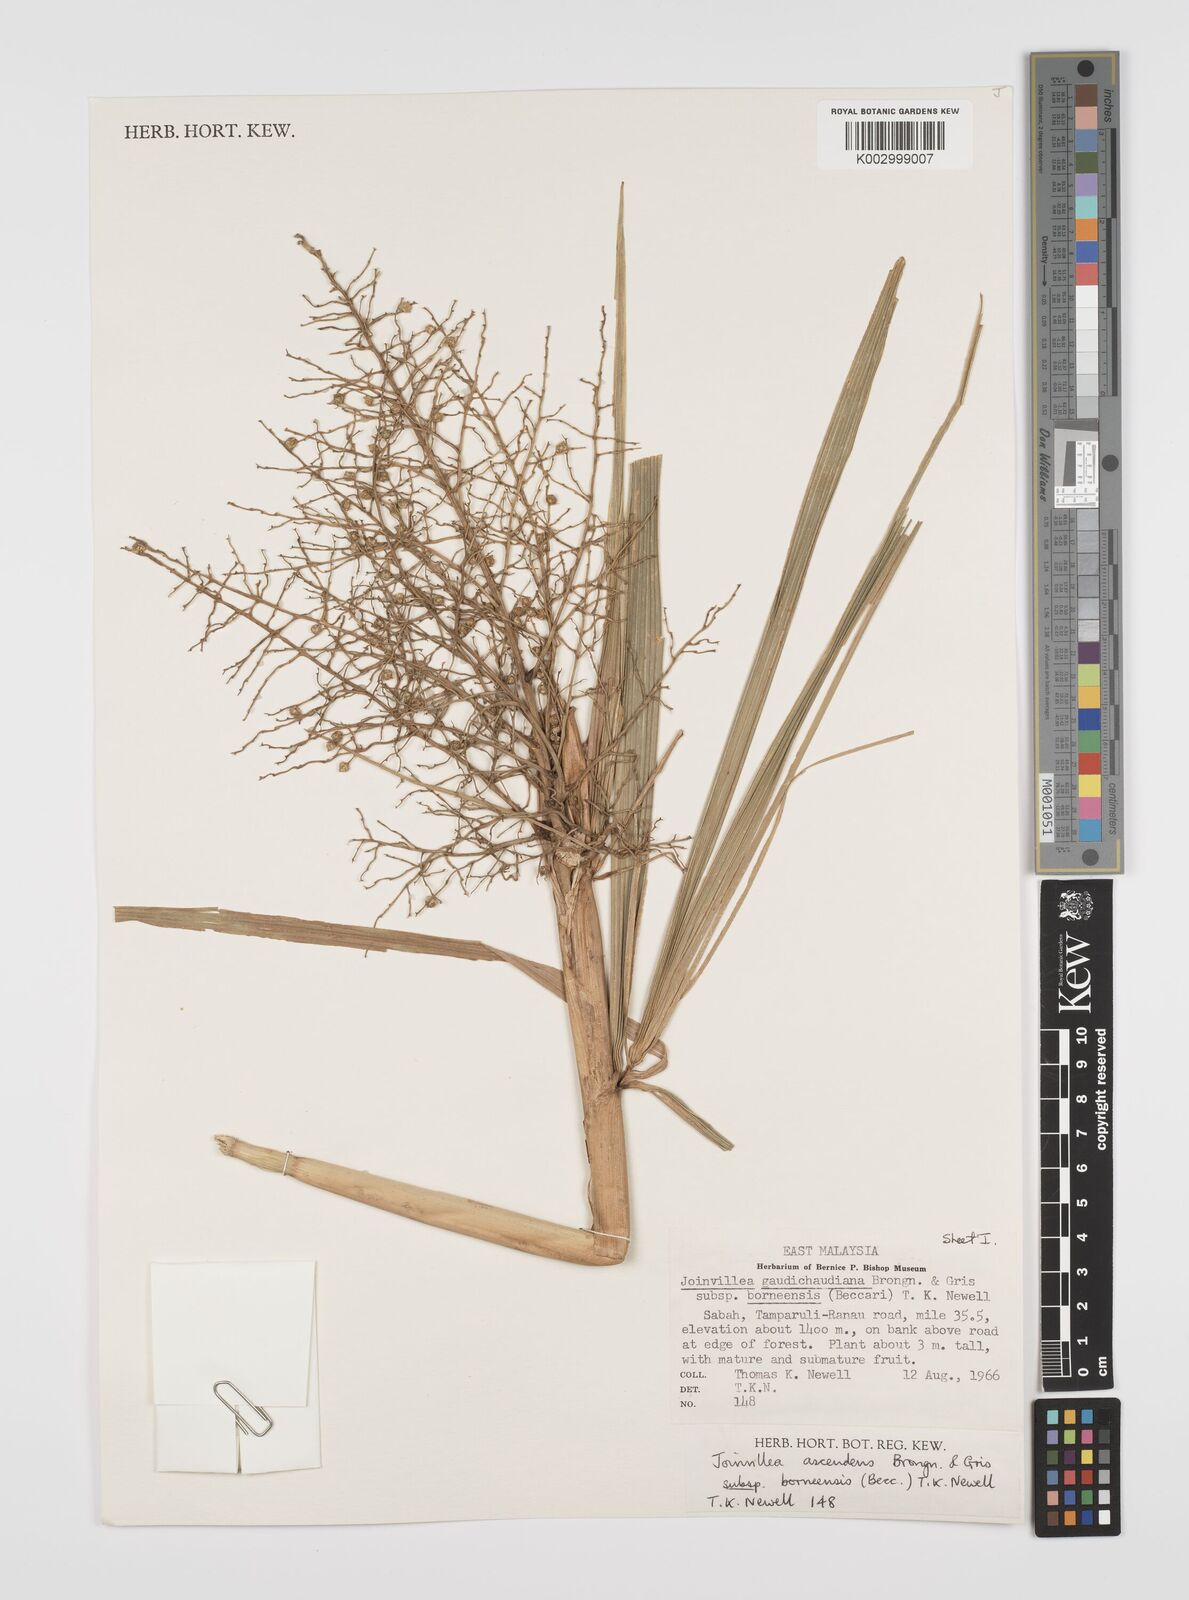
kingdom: Plantae
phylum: Tracheophyta
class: Liliopsida
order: Poales
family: Joinvilleaceae
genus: Joinvillea
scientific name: Joinvillea borneensis
